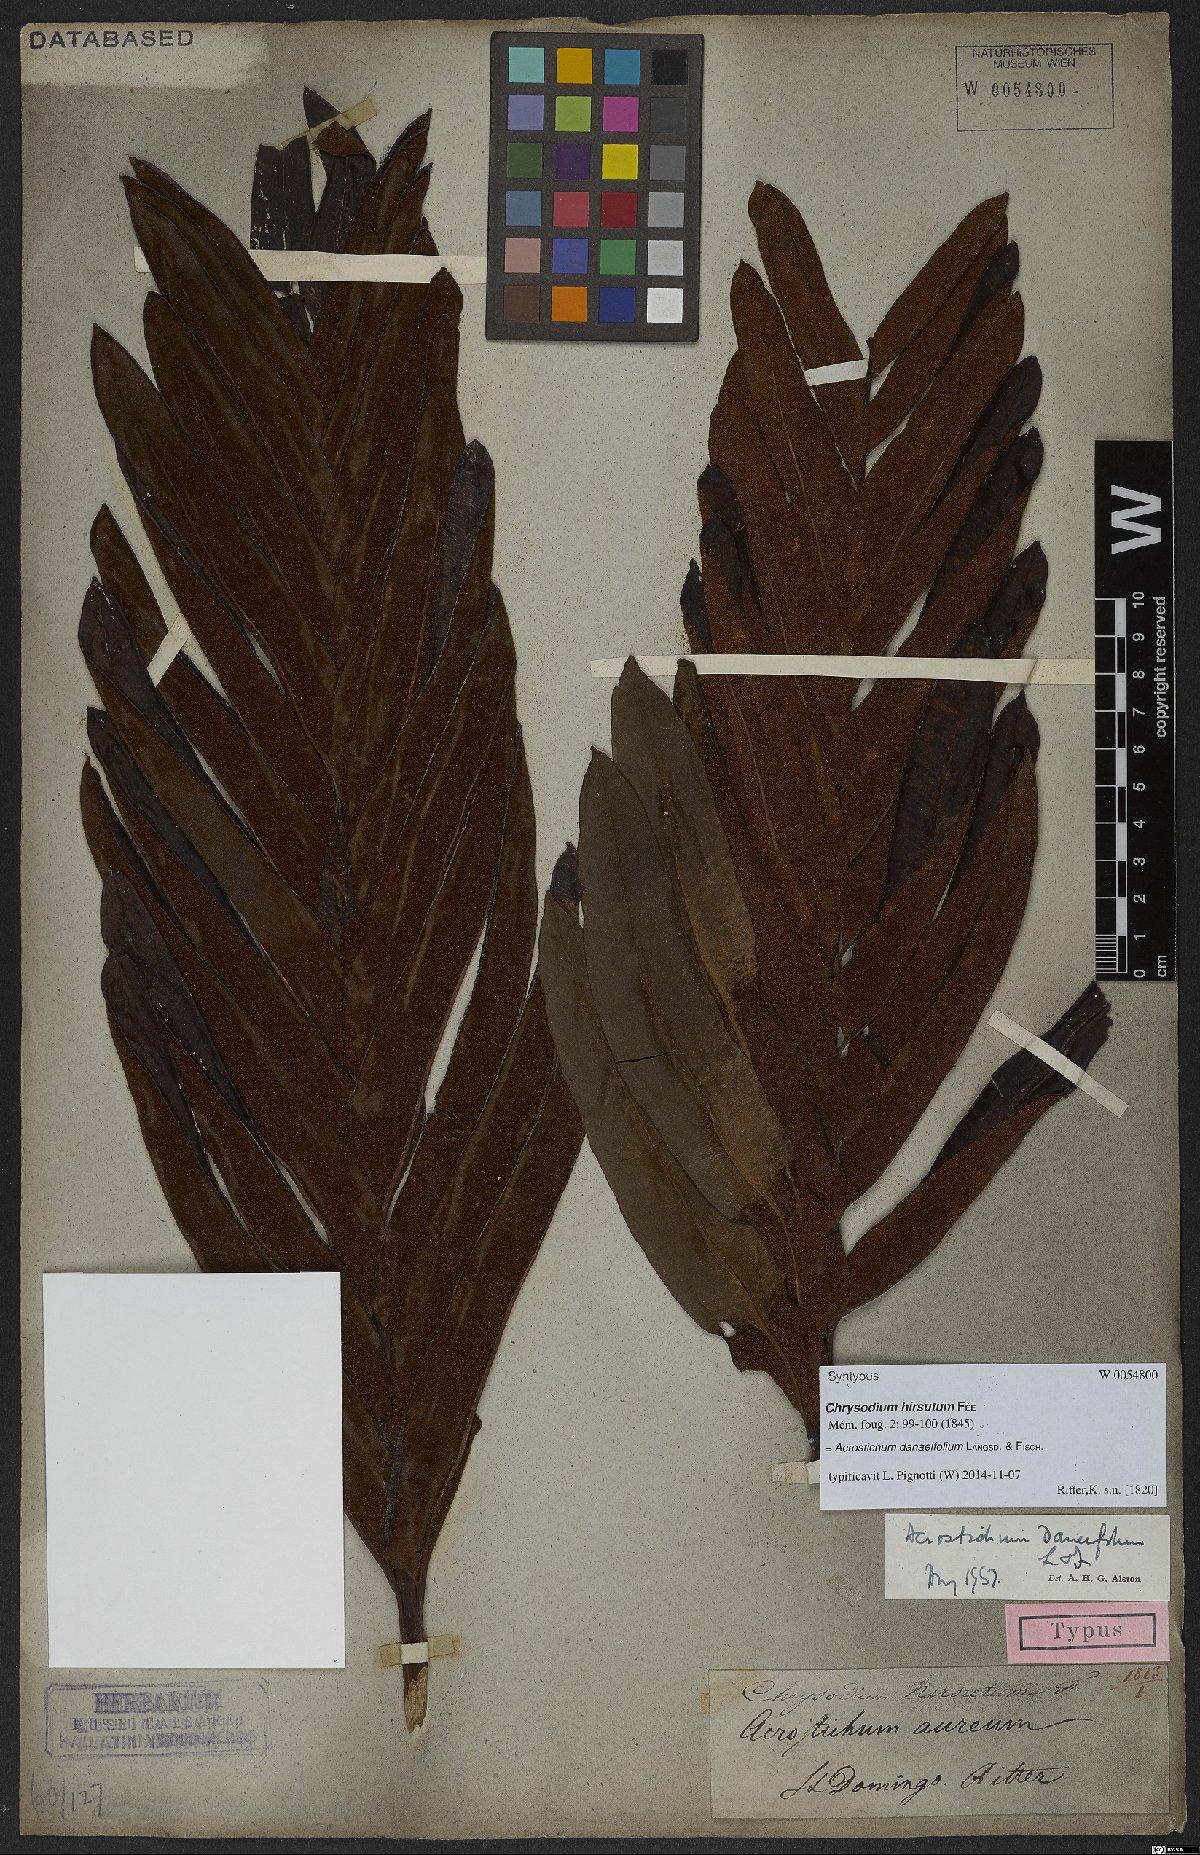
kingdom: Plantae
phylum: Tracheophyta
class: Polypodiopsida
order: Polypodiales
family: Pteridaceae
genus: Acrostichum
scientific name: Acrostichum danaeifolium
